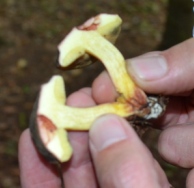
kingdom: Fungi
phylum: Basidiomycota
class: Agaricomycetes
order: Boletales
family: Boletaceae
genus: Xerocomellus
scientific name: Xerocomellus cisalpinus
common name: finsprukken rørhat
